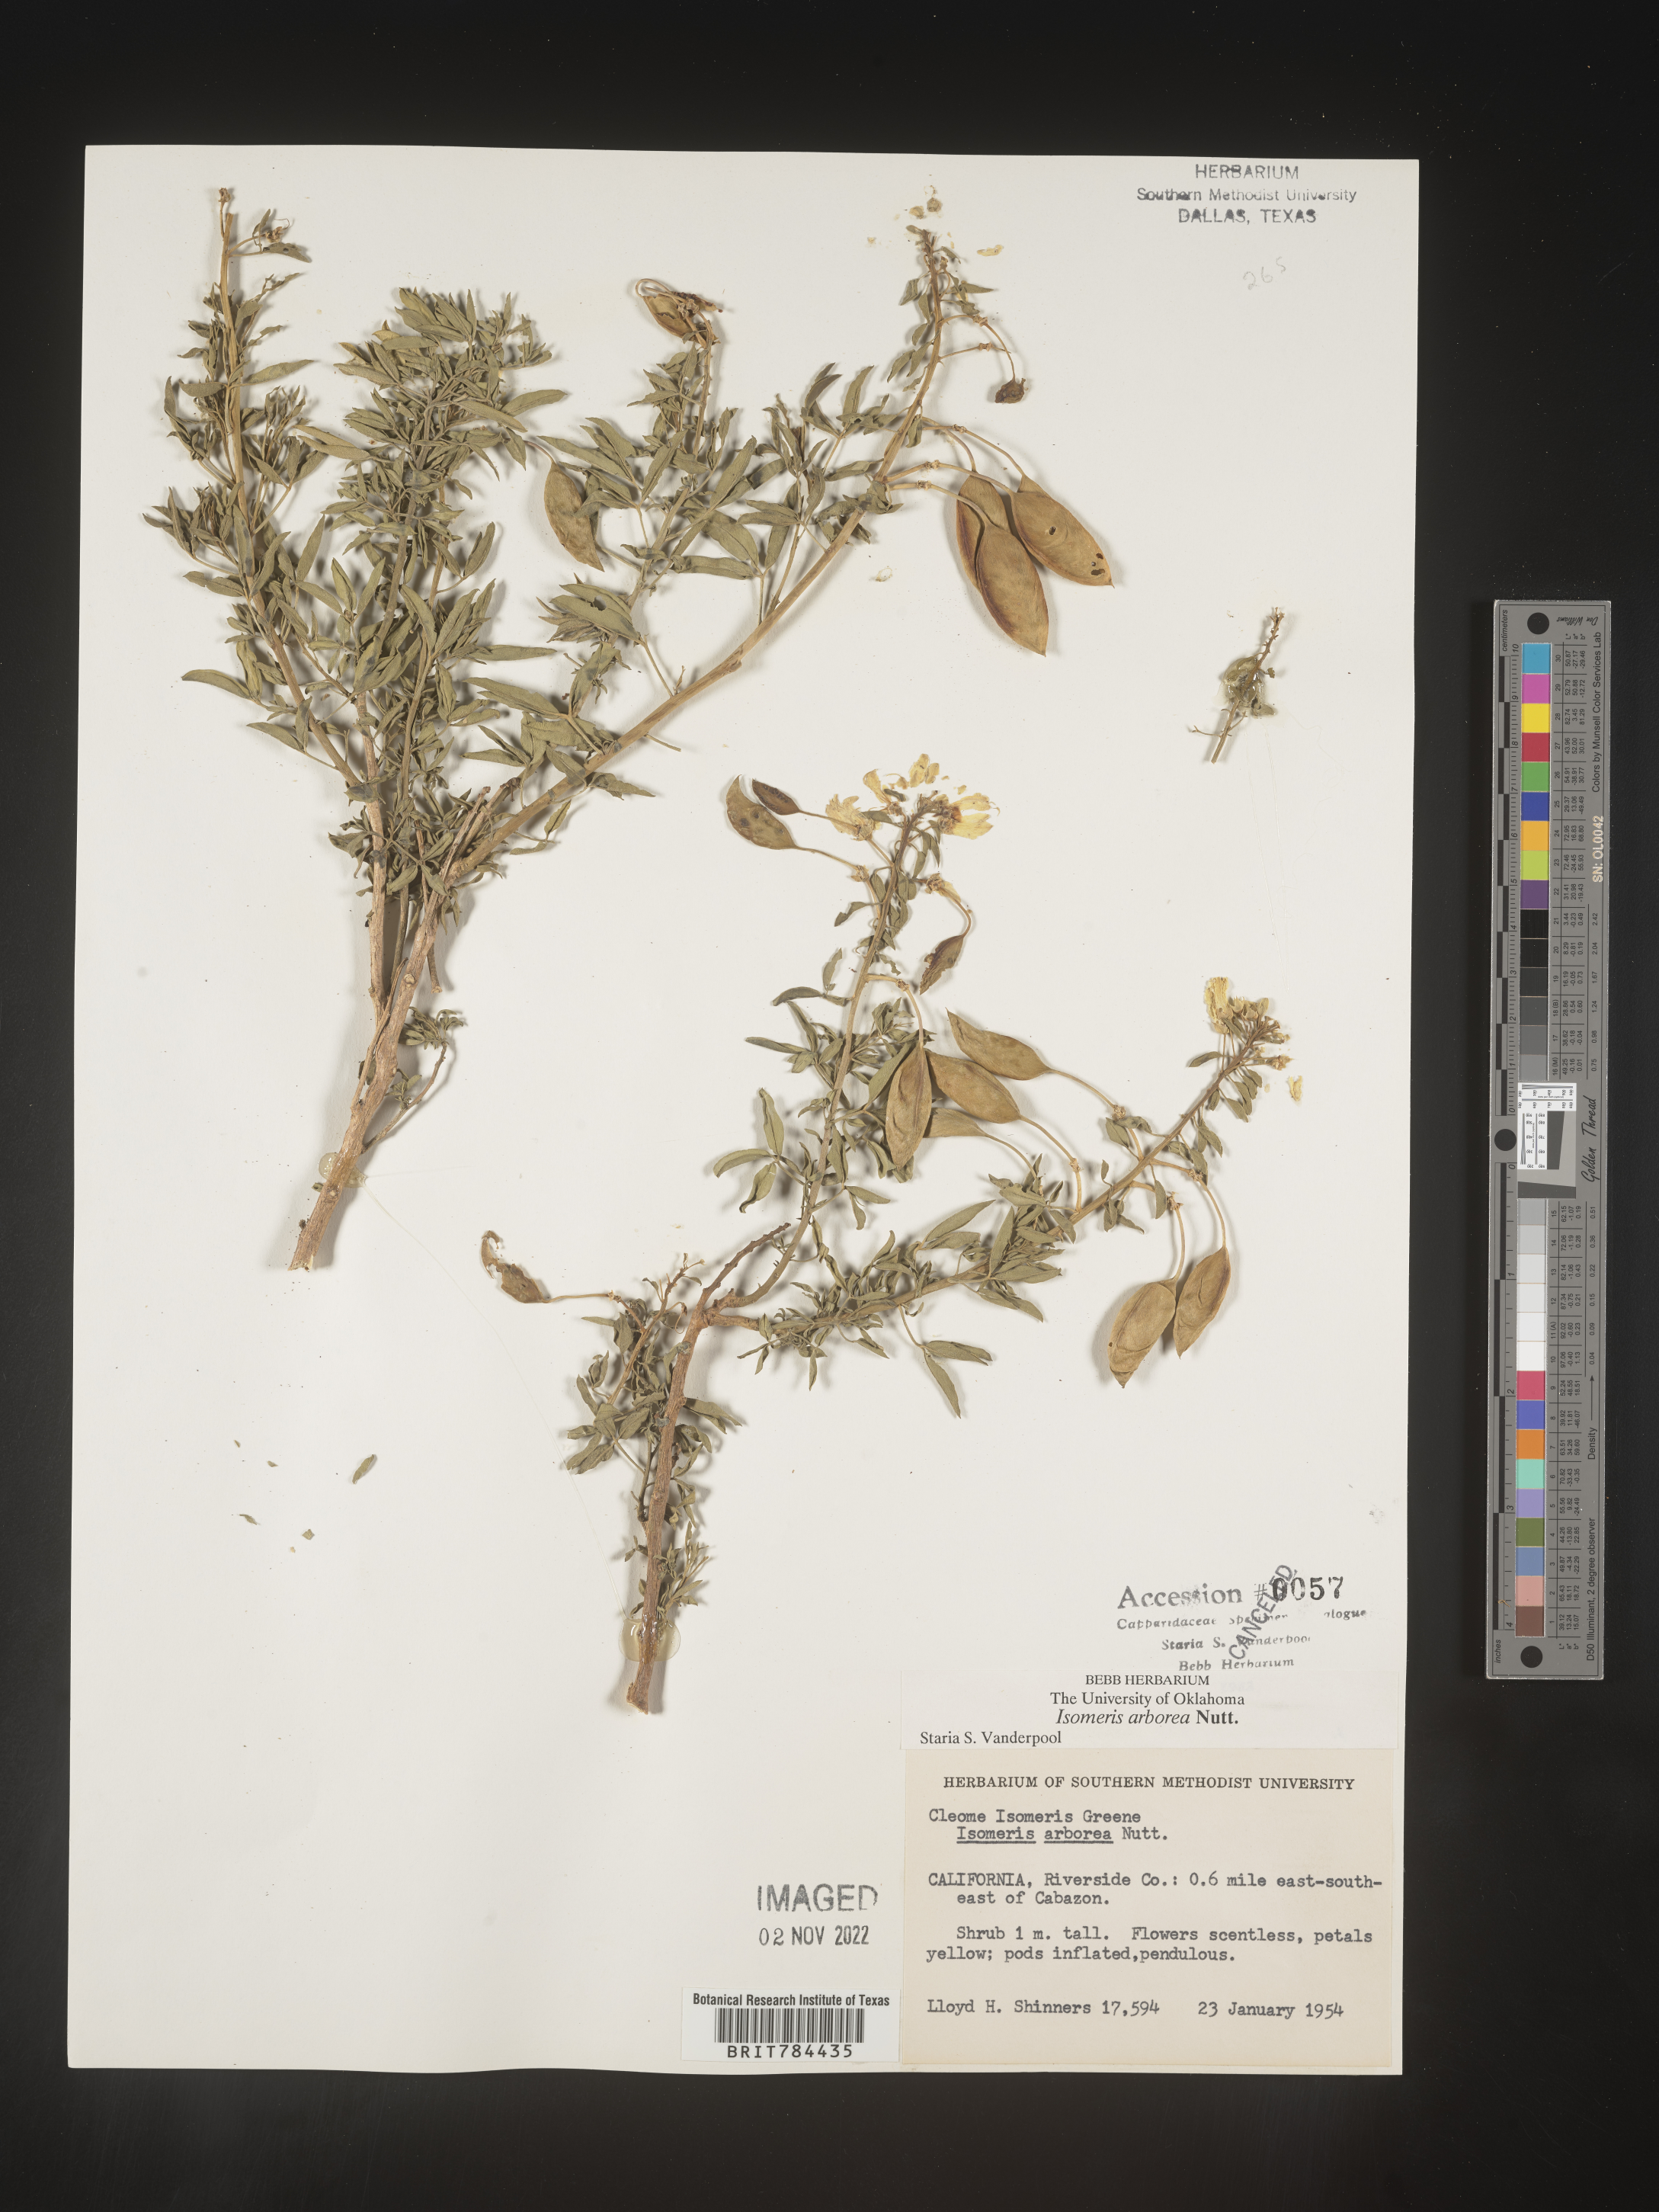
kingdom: Animalia
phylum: Arthropoda
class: Insecta
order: Hymenoptera
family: Ichneumonidae
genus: Isomeris
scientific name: Isomeris
